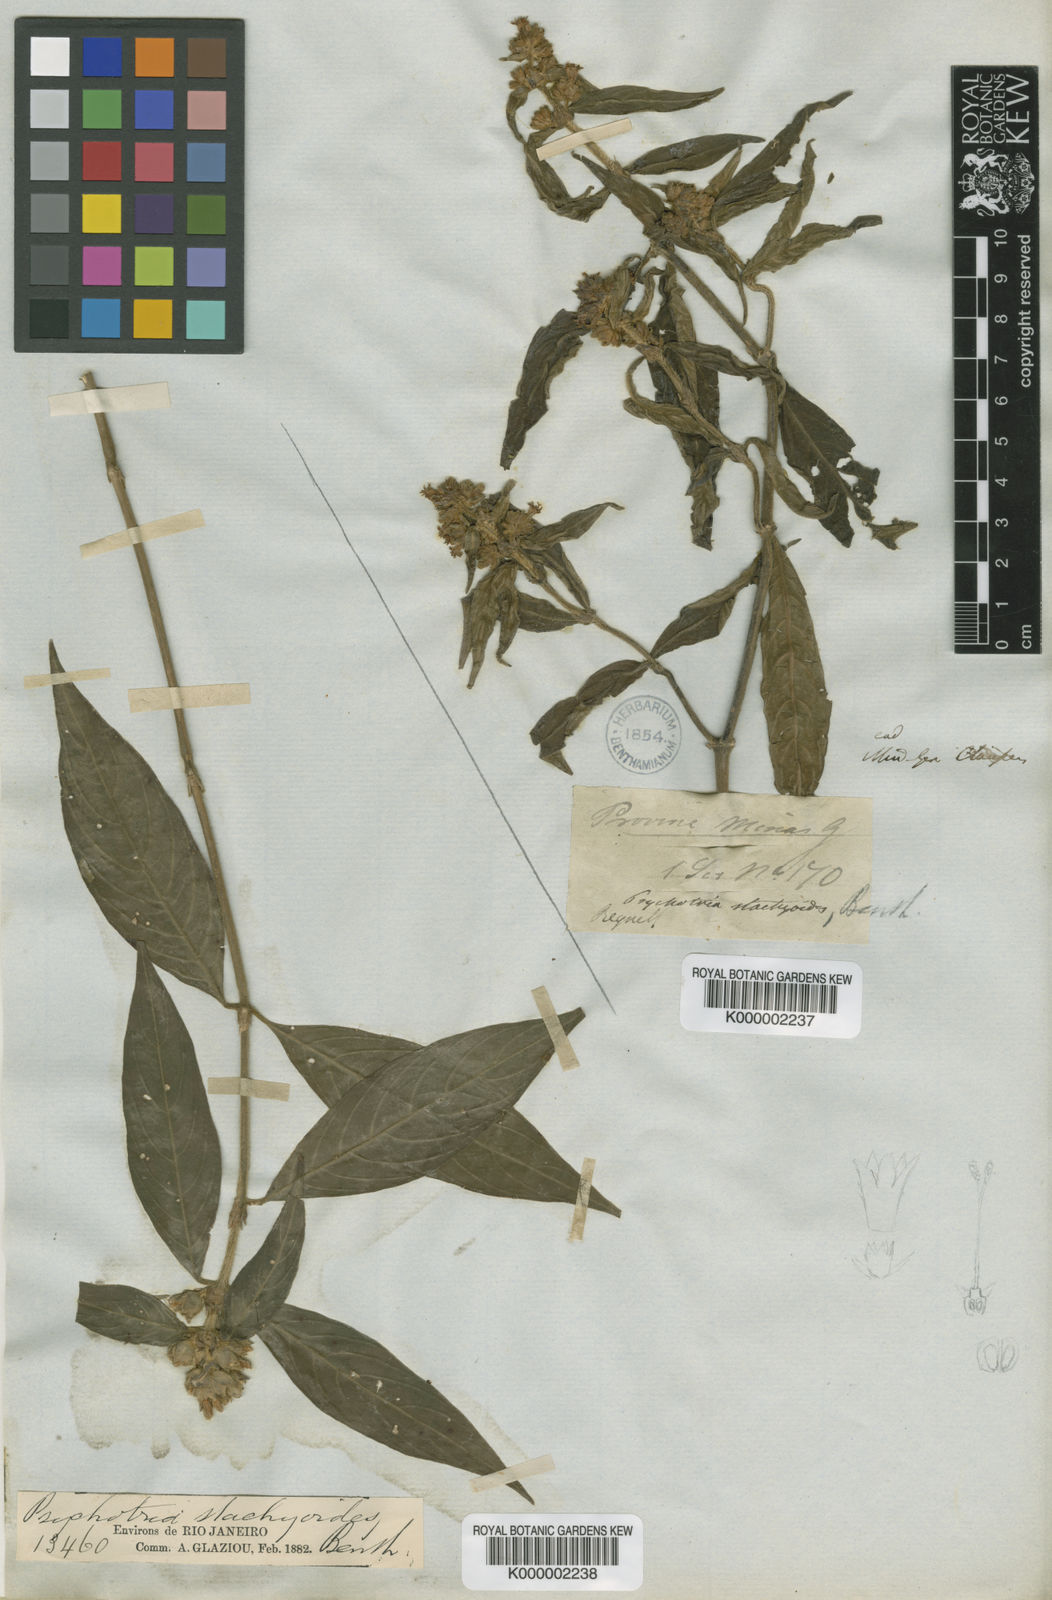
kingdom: Plantae
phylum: Tracheophyta
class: Magnoliopsida
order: Gentianales
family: Rubiaceae
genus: Psychotria
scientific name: Psychotria stachyoides
